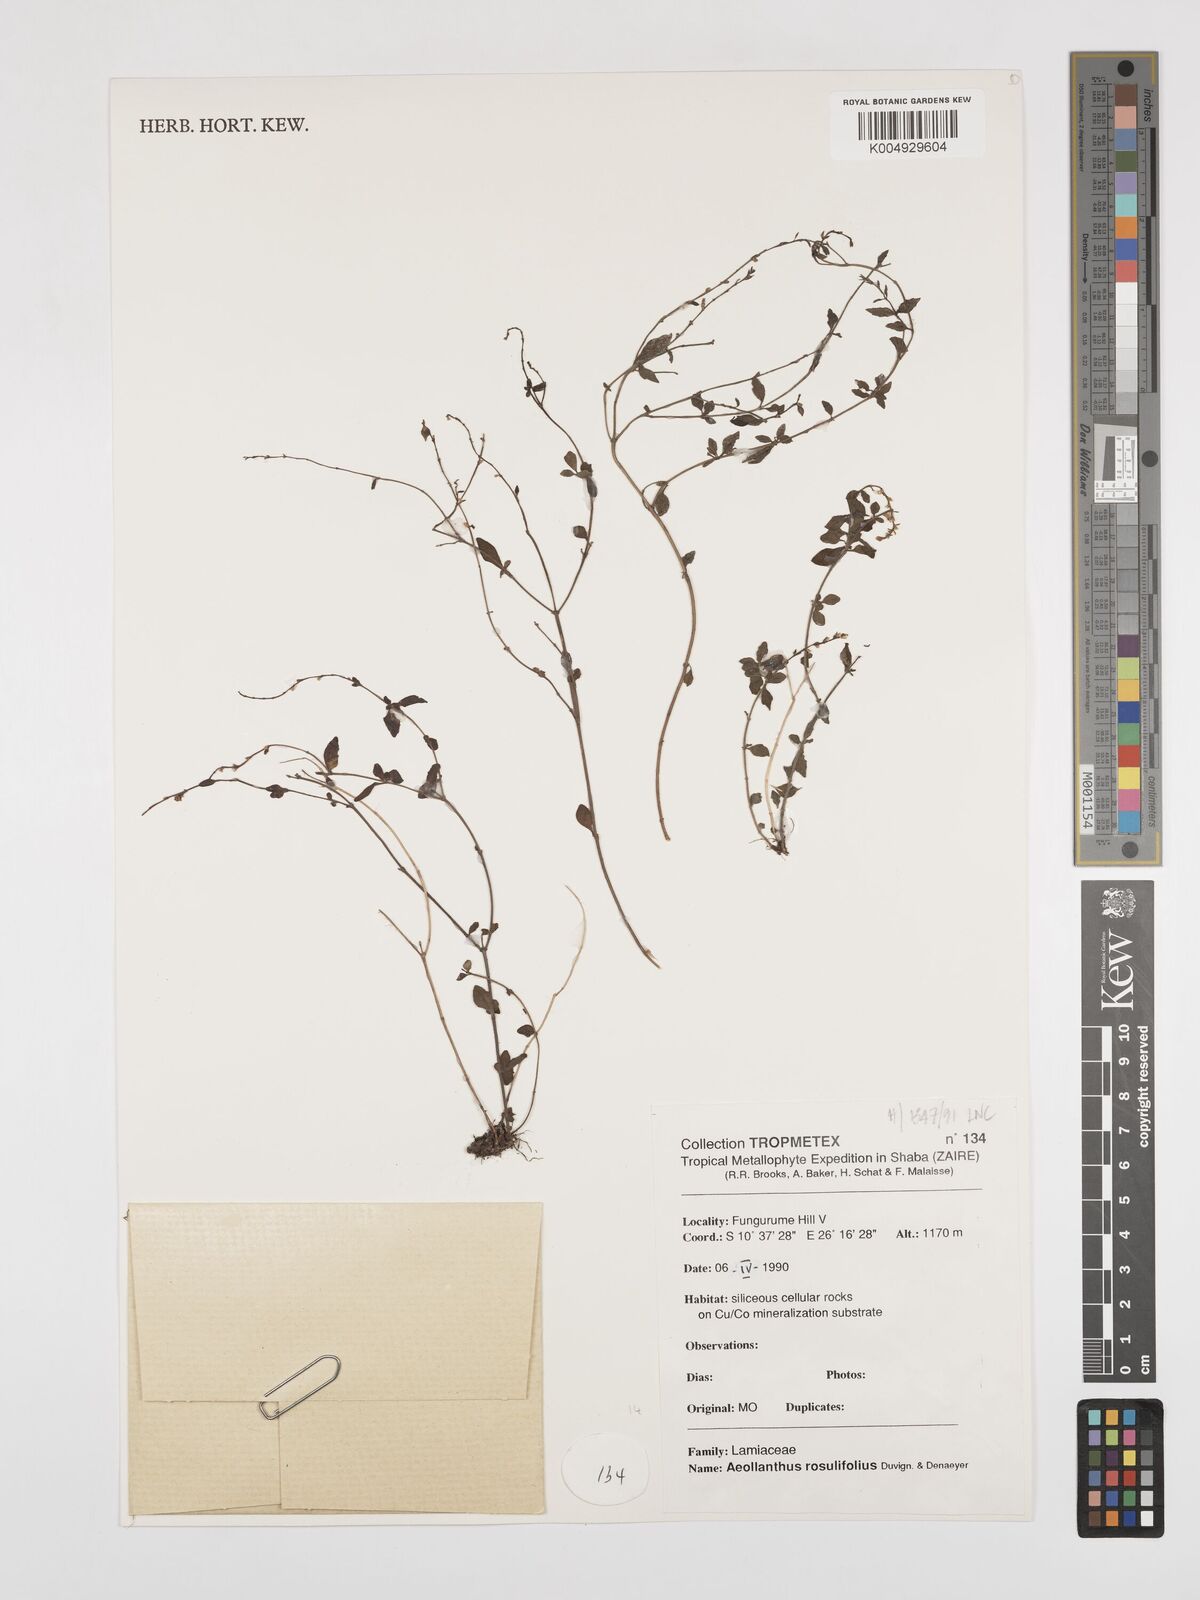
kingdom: Plantae
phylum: Tracheophyta
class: Magnoliopsida
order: Lamiales
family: Lamiaceae
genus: Aeollanthus
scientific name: Aeollanthus homblei
